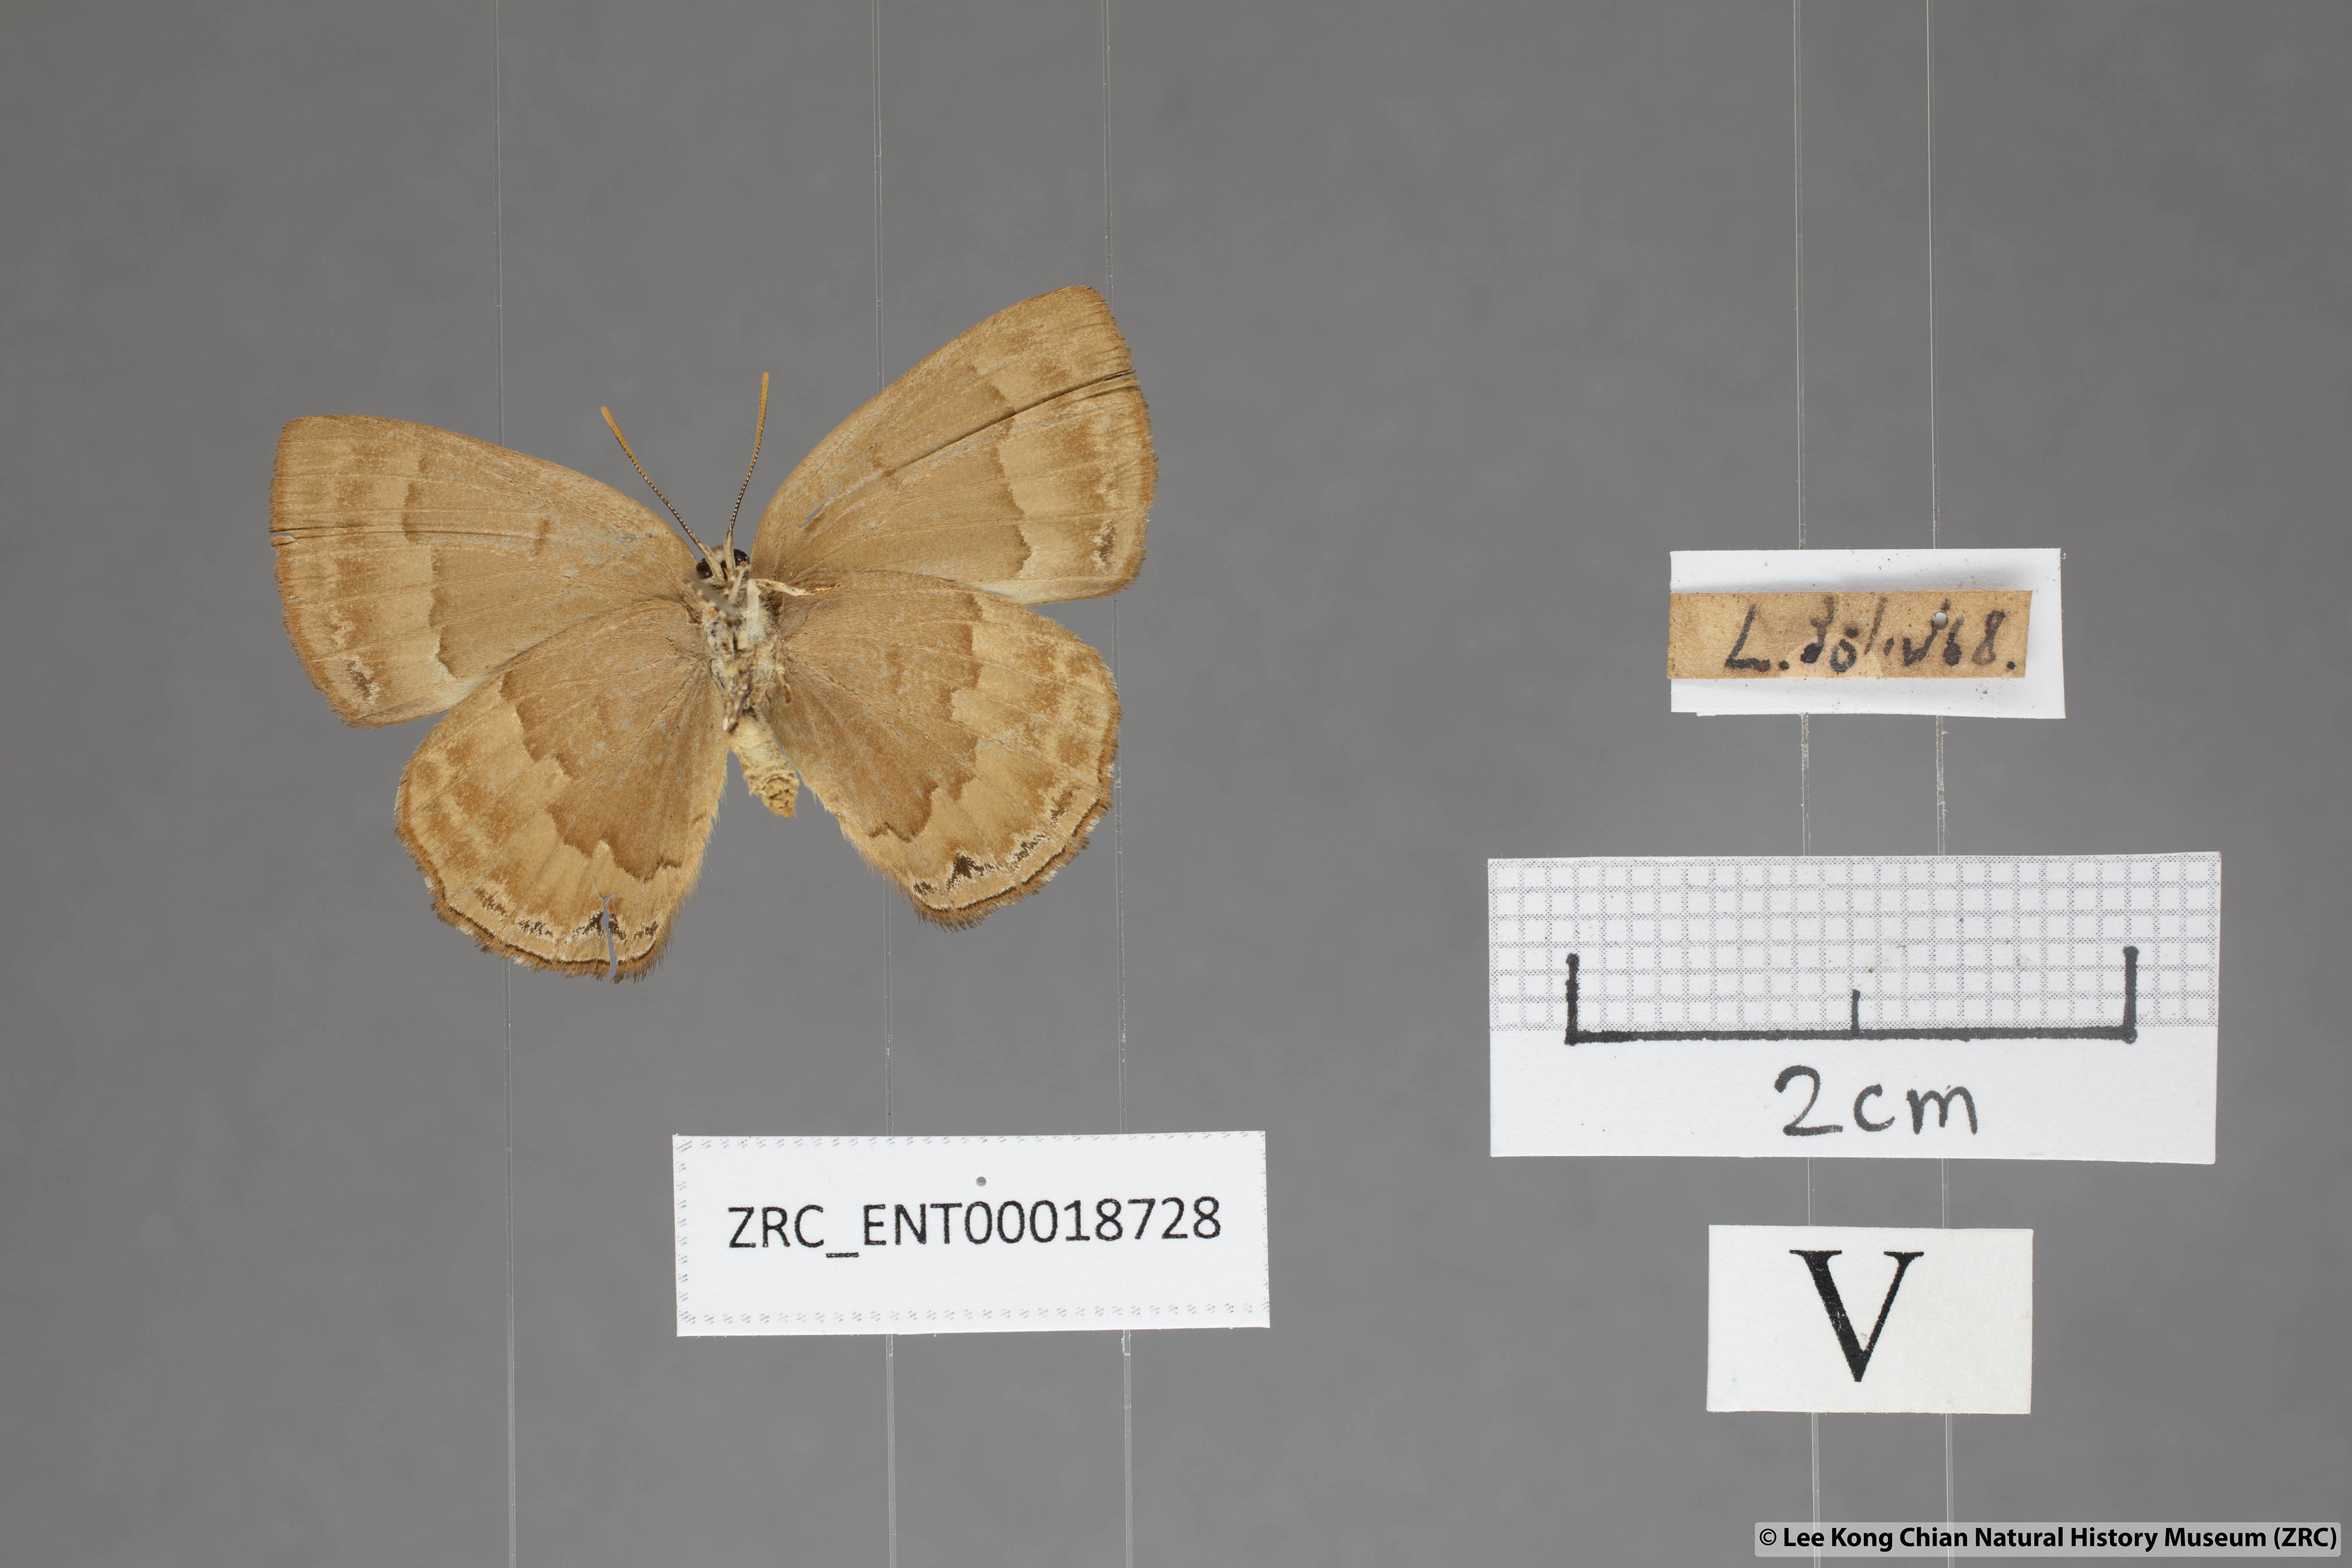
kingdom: Animalia
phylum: Arthropoda
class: Insecta
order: Lepidoptera
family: Lycaenidae
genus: Deramas
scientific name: Deramas livena
